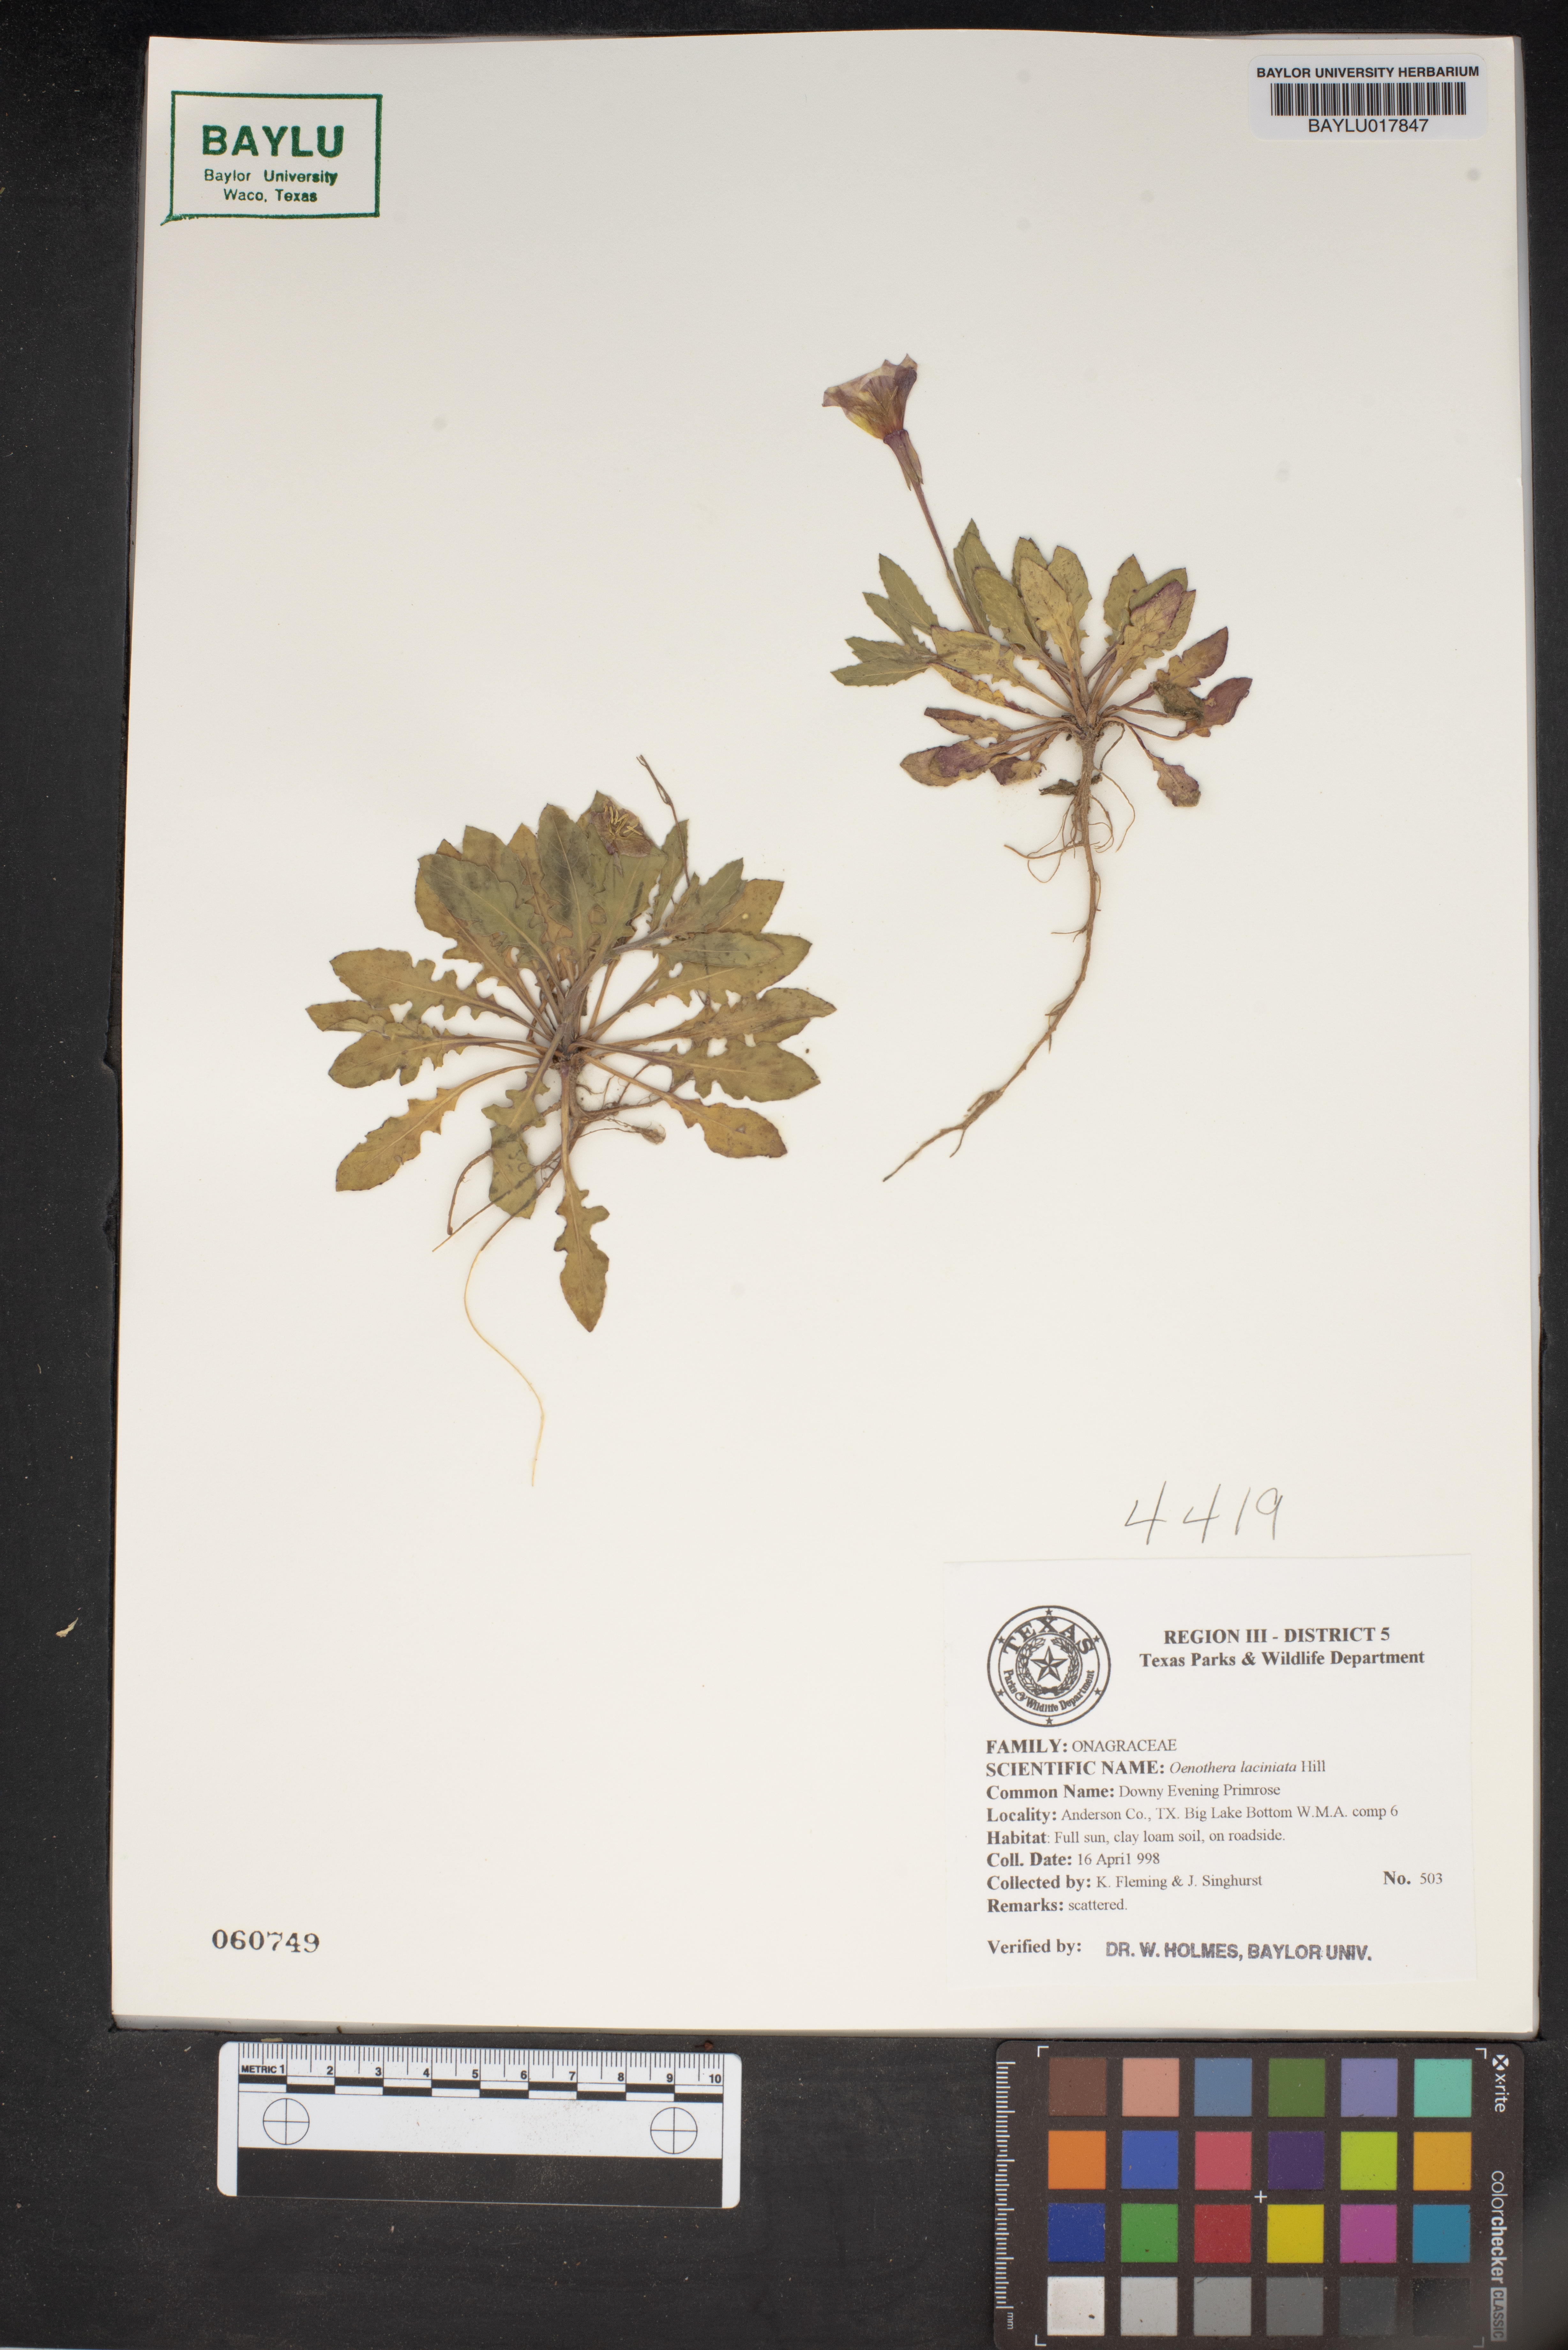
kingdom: Plantae
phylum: Tracheophyta
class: Magnoliopsida
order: Myrtales
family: Onagraceae
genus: Oenothera
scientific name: Oenothera laciniata
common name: Cut-leaved evening-primrose
